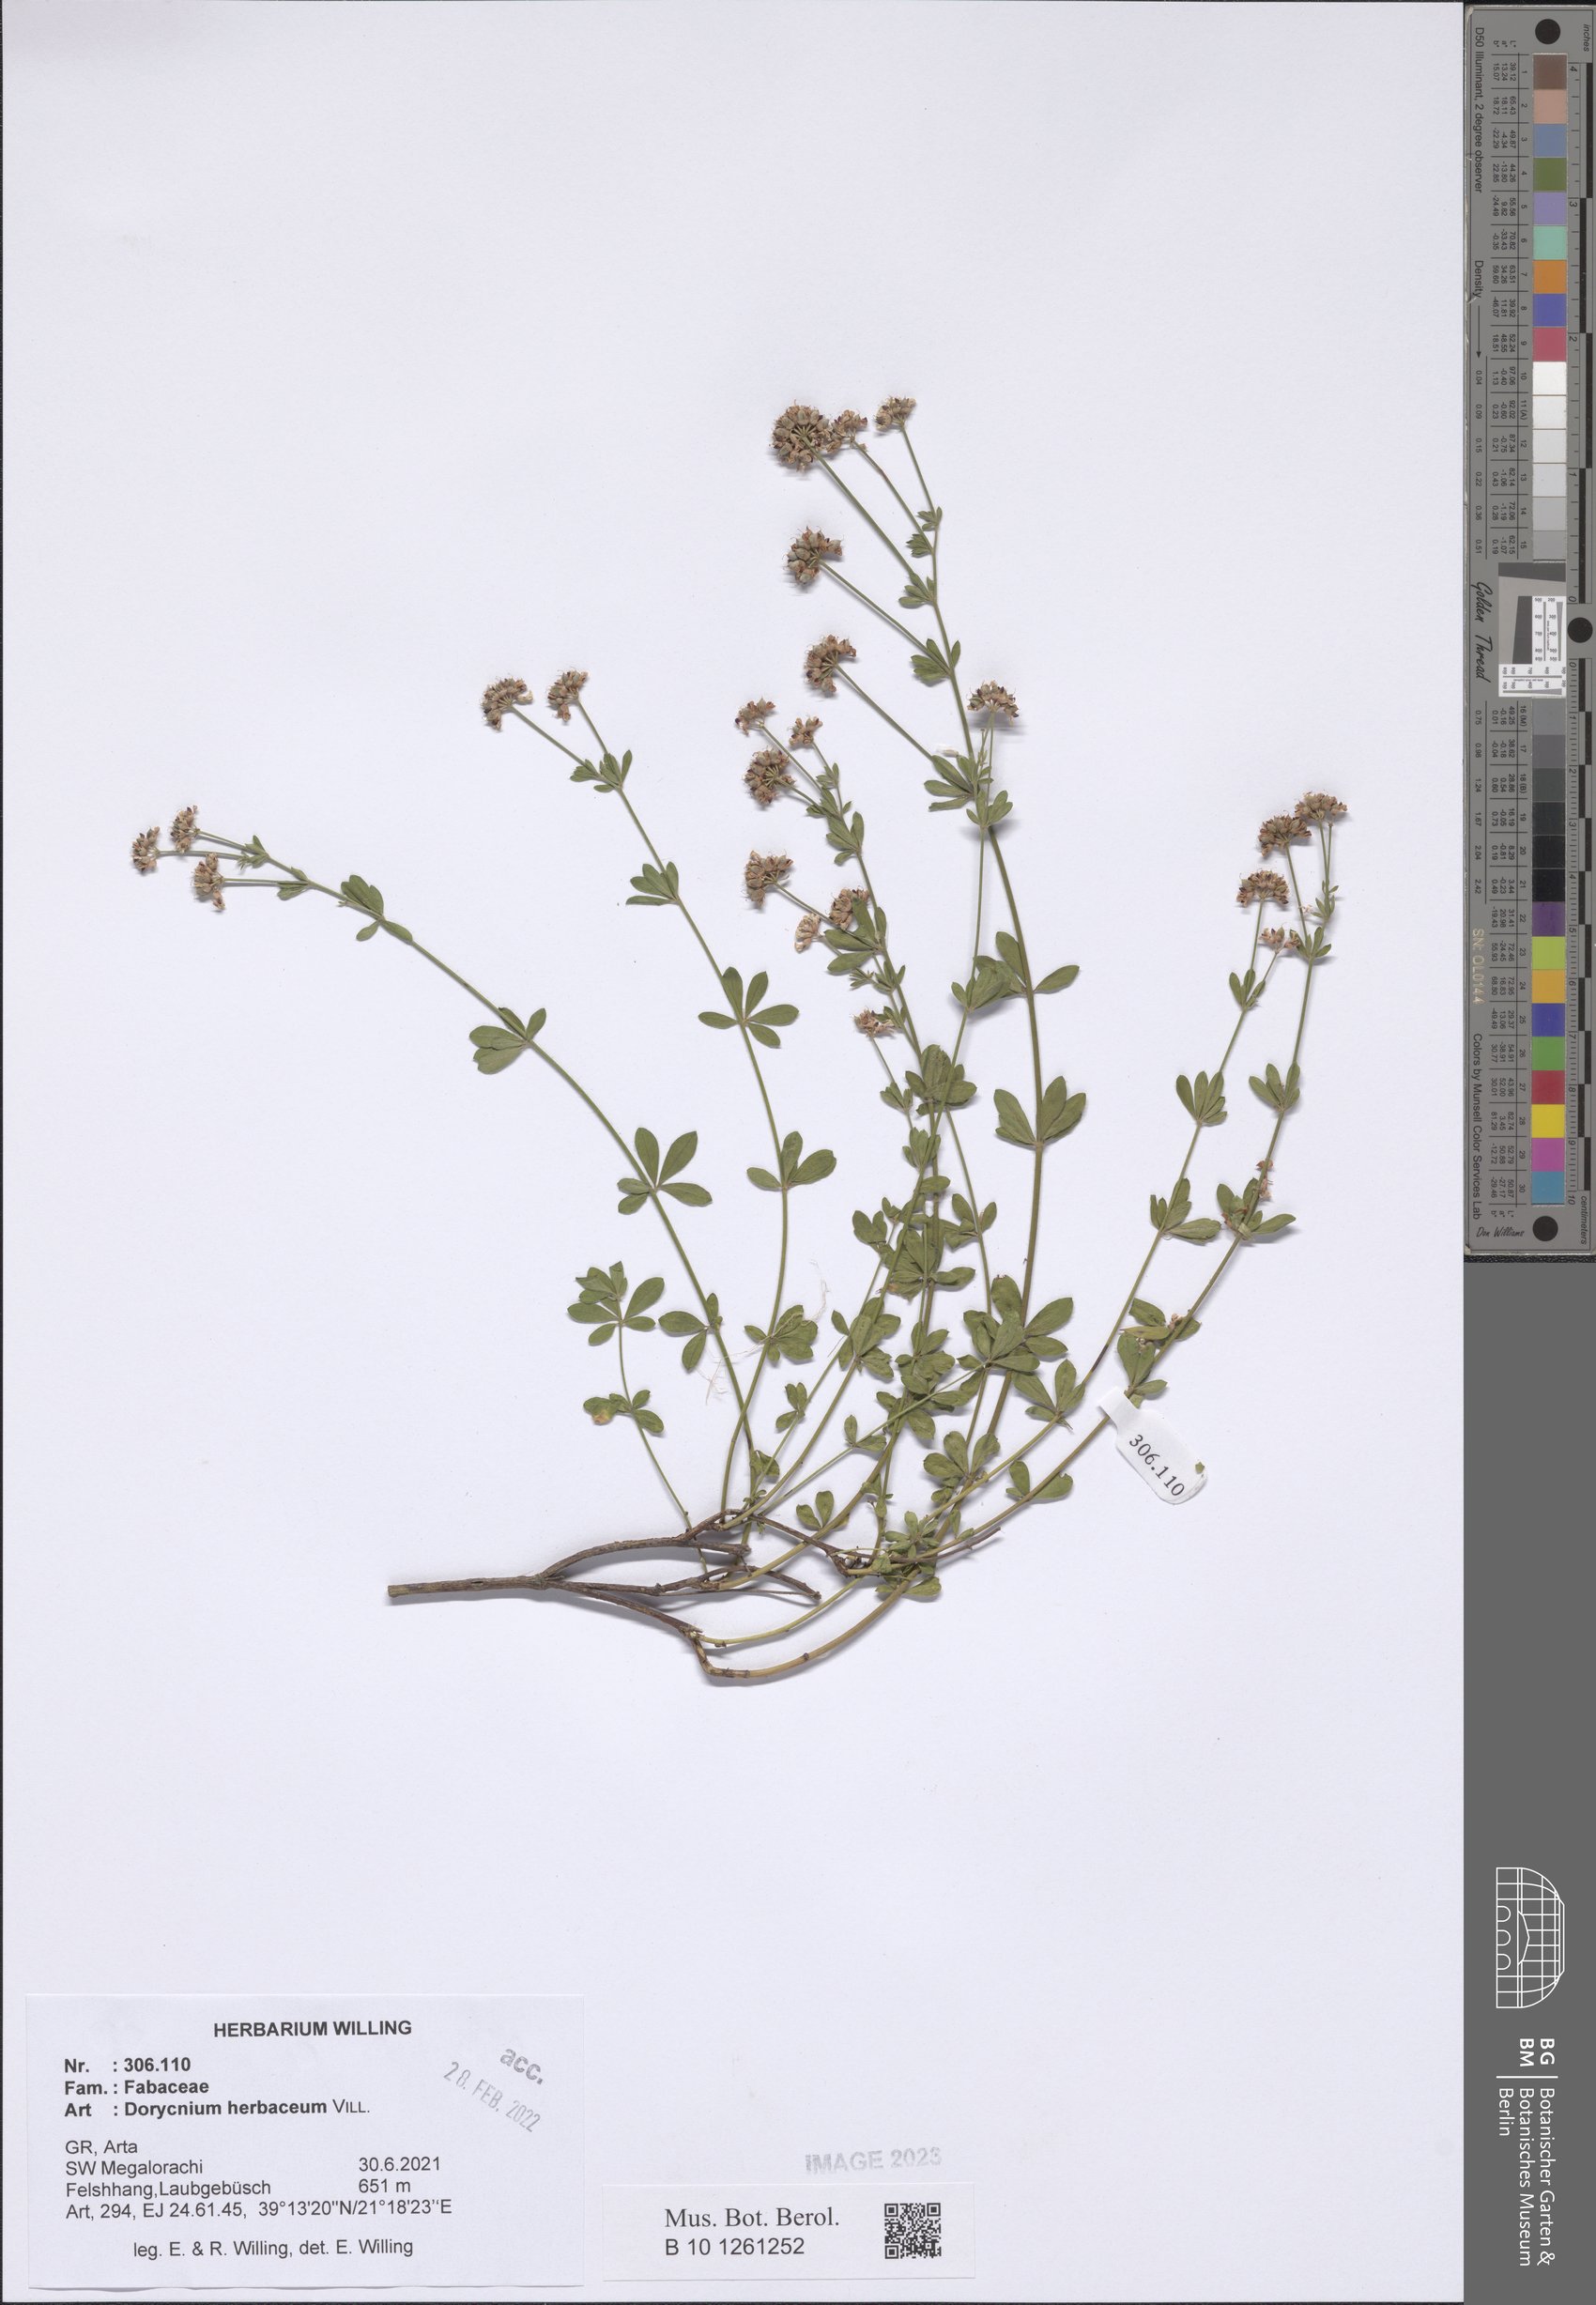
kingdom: Plantae
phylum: Tracheophyta
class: Magnoliopsida
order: Fabales
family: Fabaceae
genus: Lotus
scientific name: Lotus herbaceus
